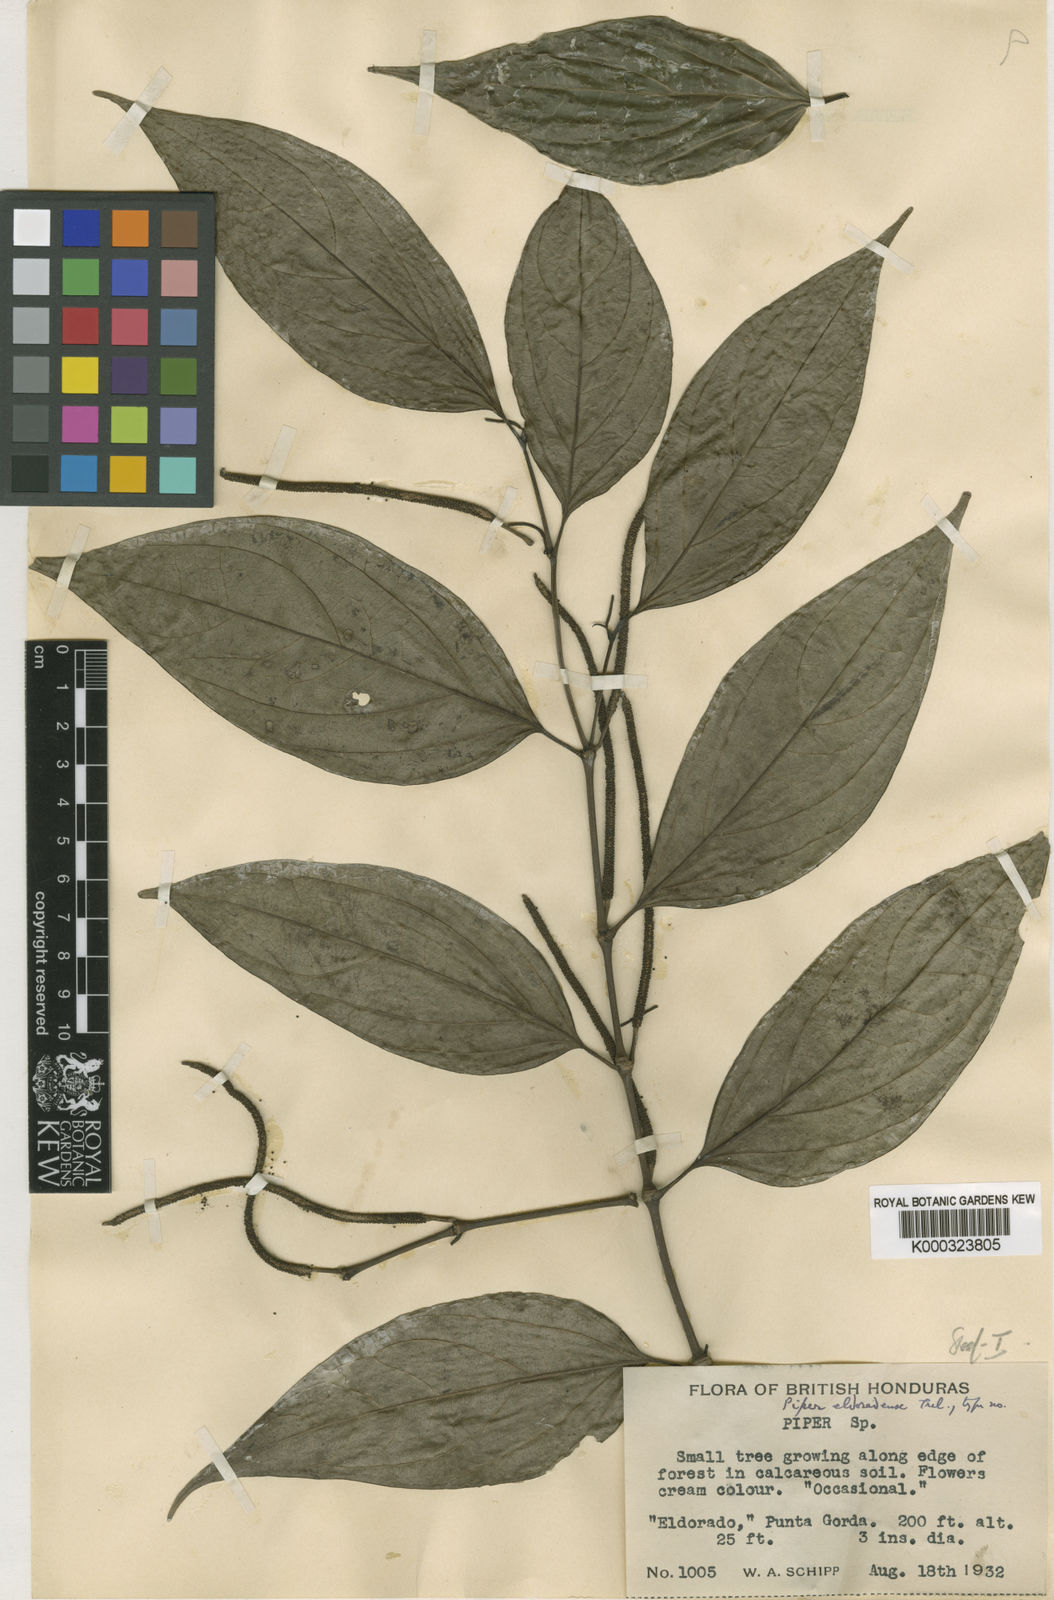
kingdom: Plantae
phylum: Tracheophyta
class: Magnoliopsida
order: Piperales
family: Piperaceae
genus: Piper
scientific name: Piper
